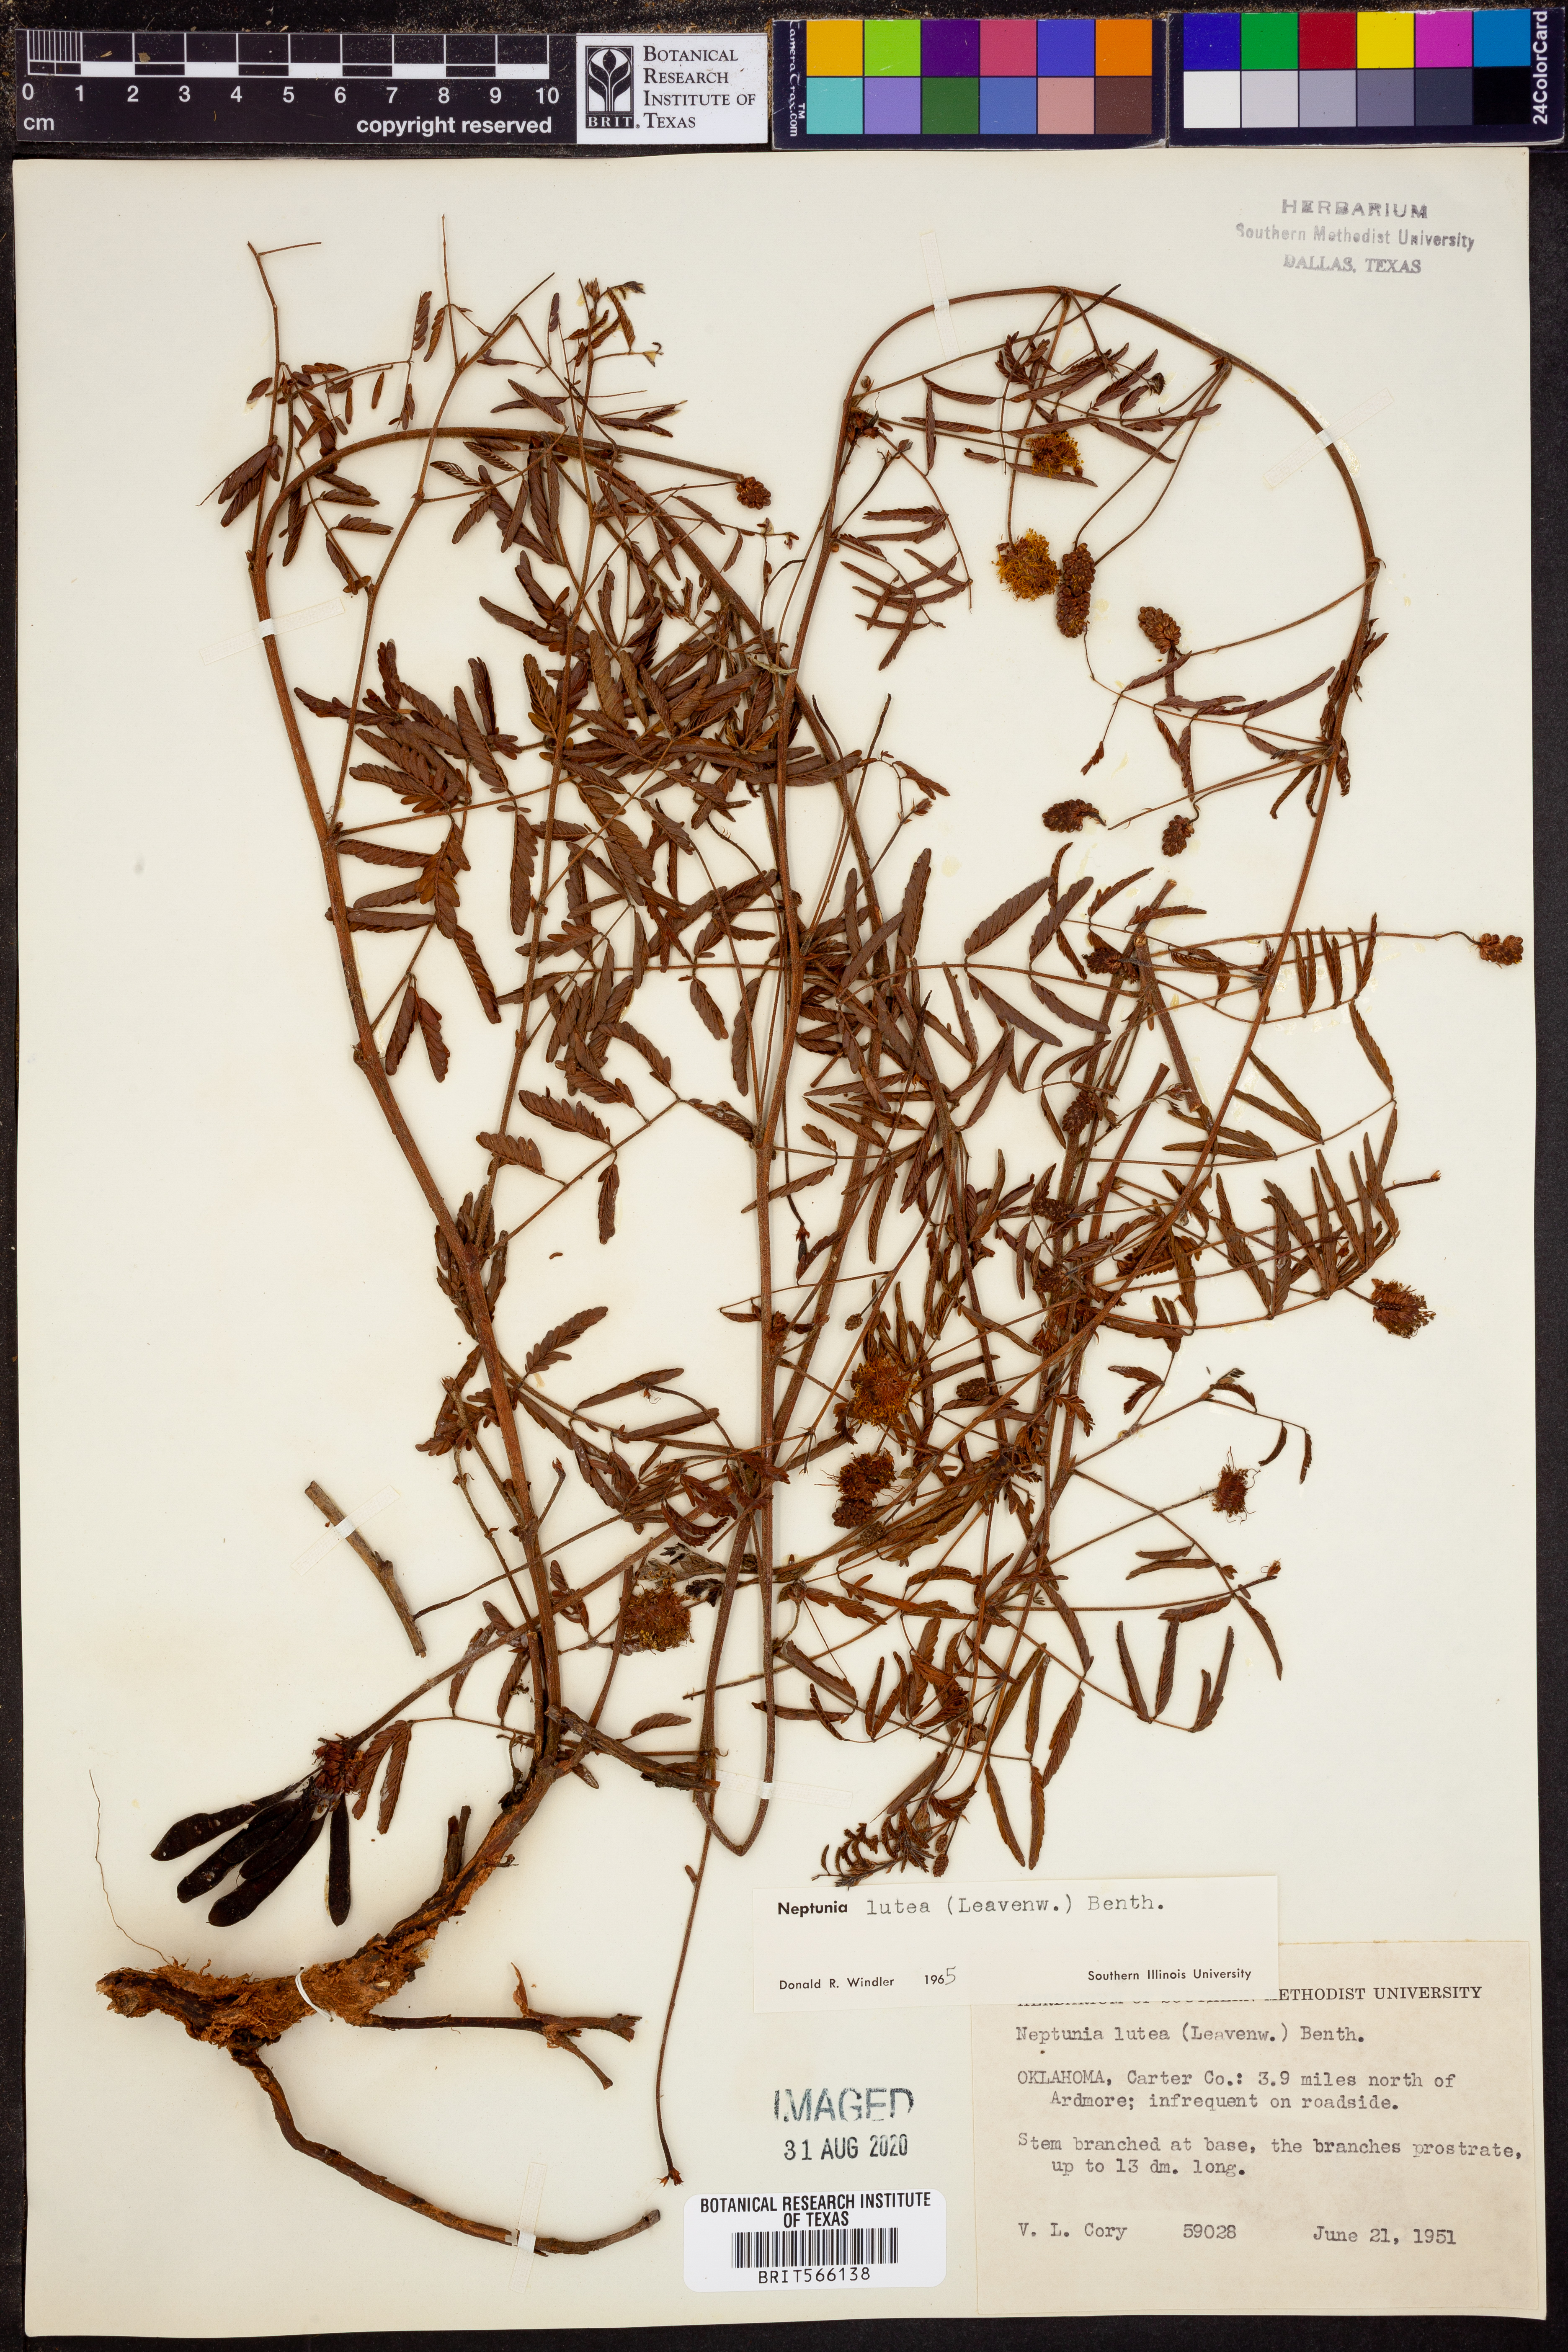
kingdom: Plantae
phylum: Tracheophyta
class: Magnoliopsida
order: Fabales
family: Fabaceae
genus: Neptunia
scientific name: Neptunia lutea
